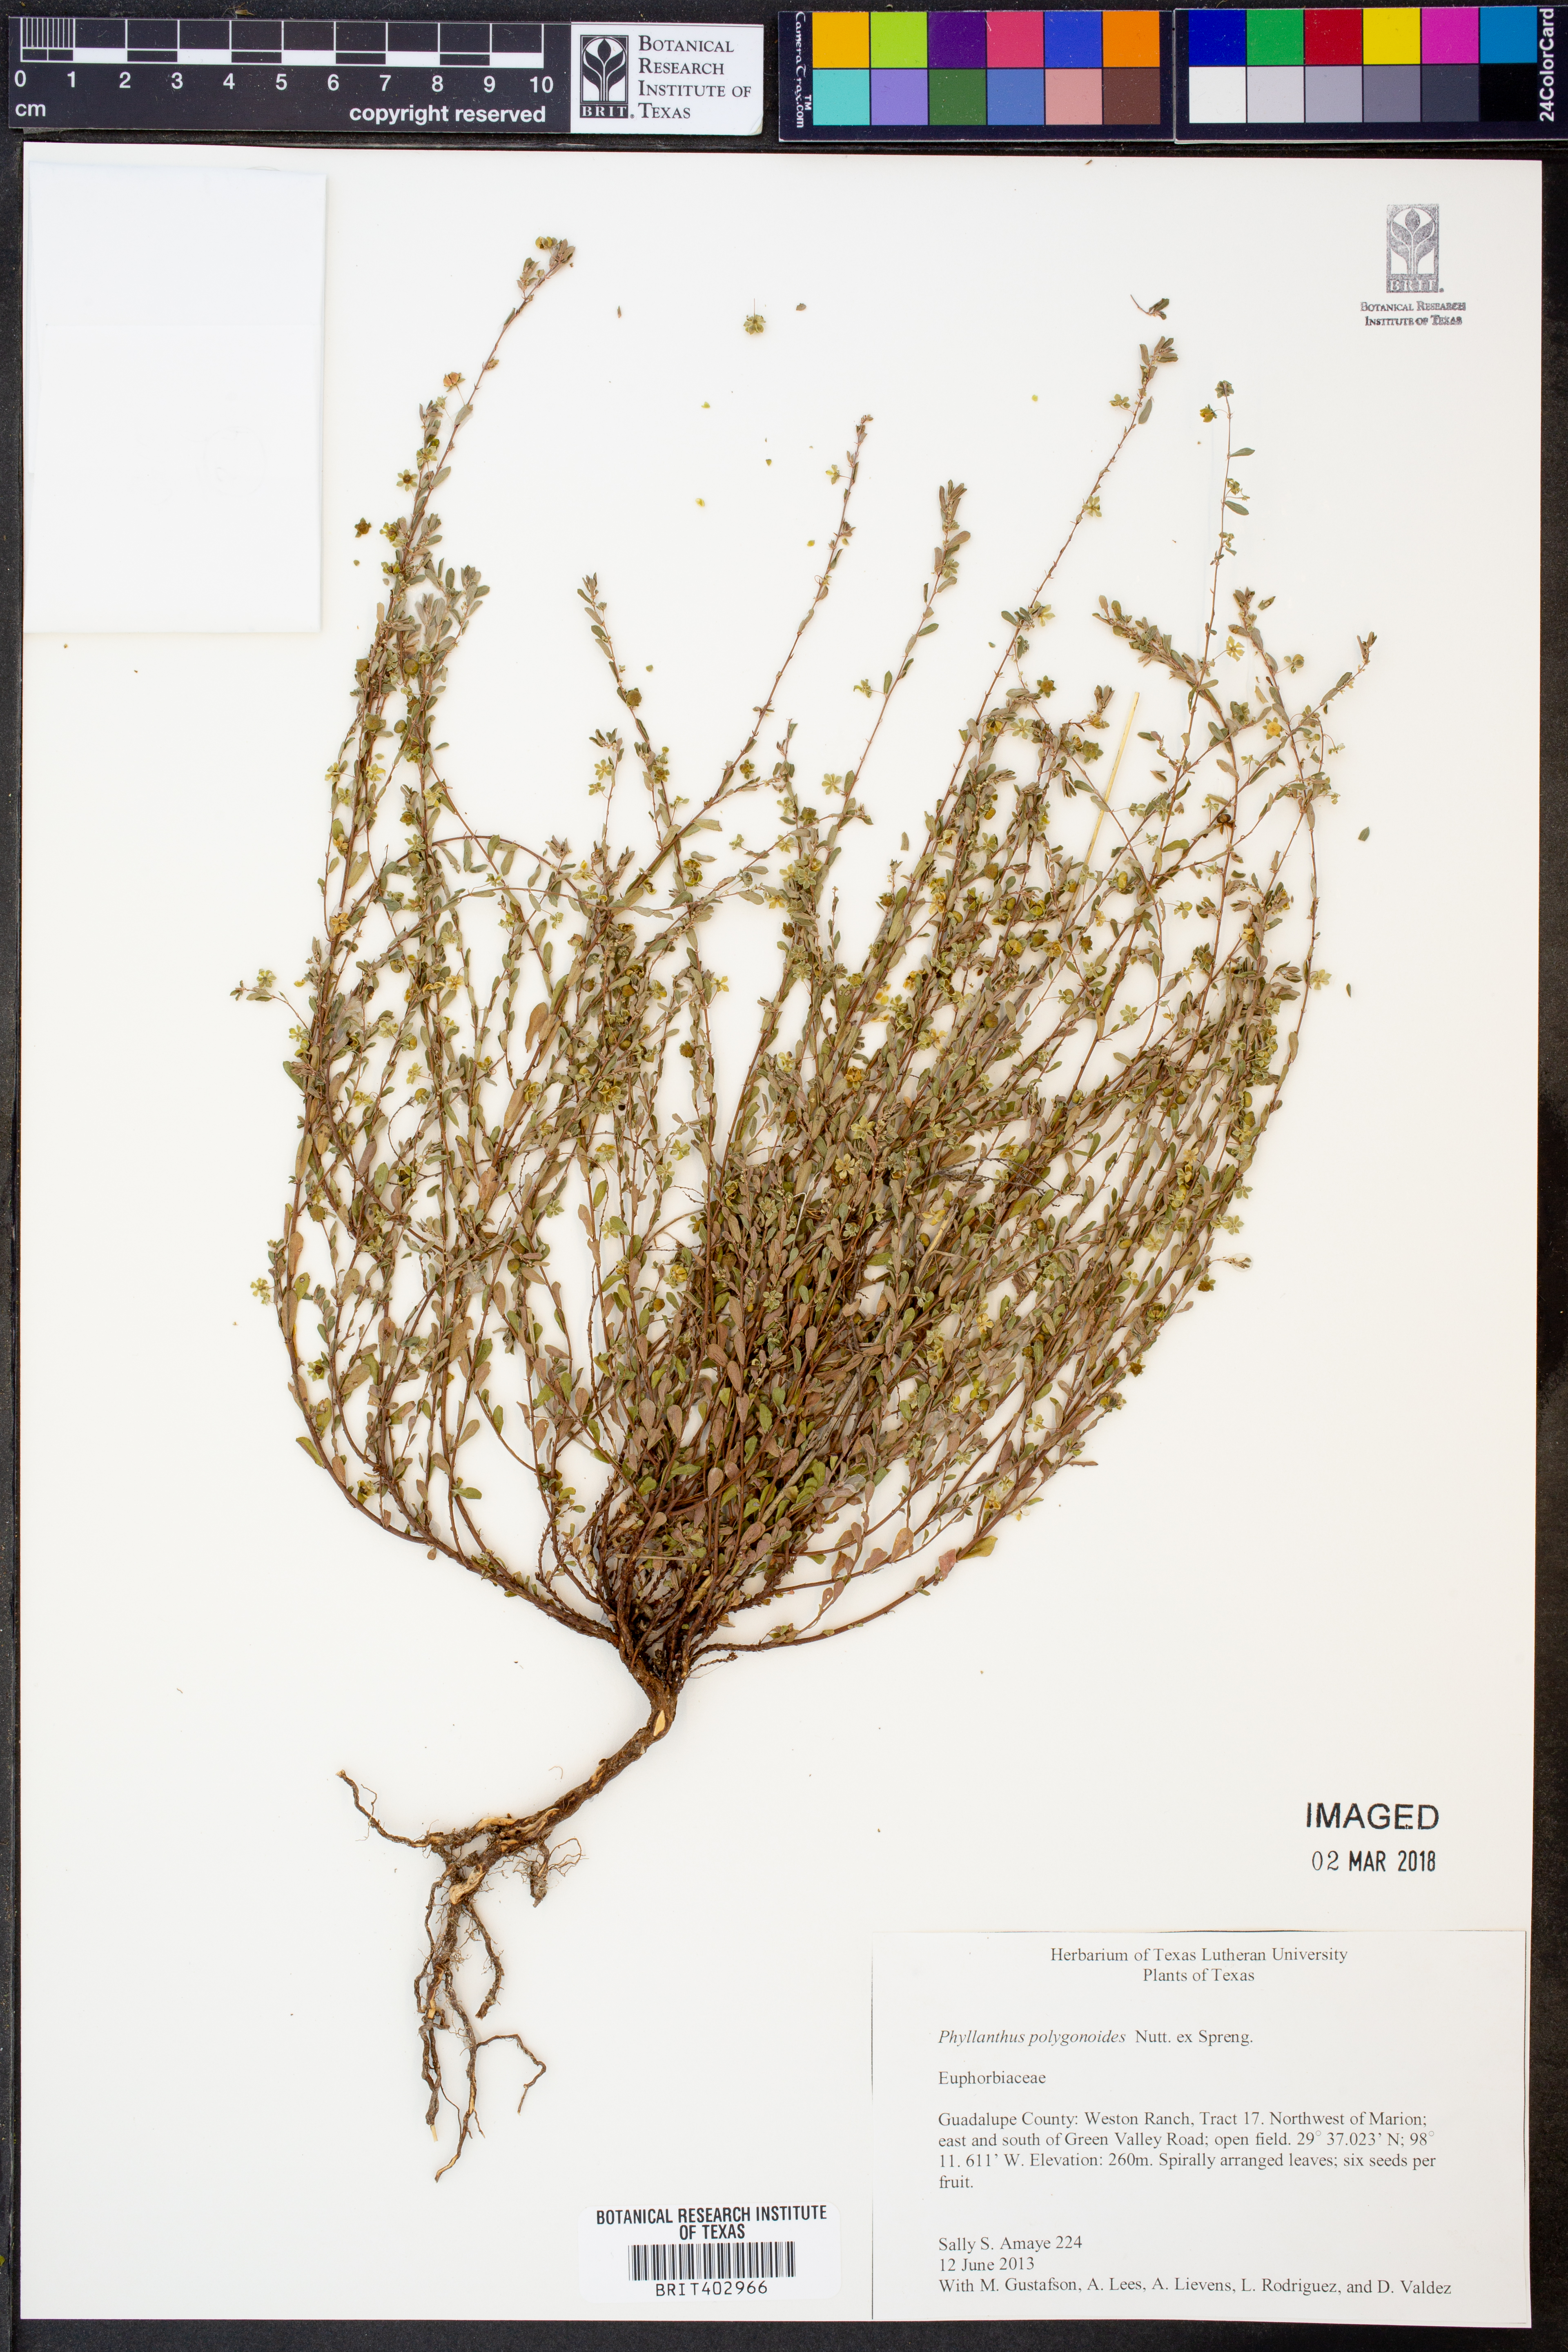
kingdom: Plantae
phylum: Tracheophyta
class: Magnoliopsida
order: Malpighiales
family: Phyllanthaceae
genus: Phyllanthus
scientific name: Phyllanthus polygonoides
